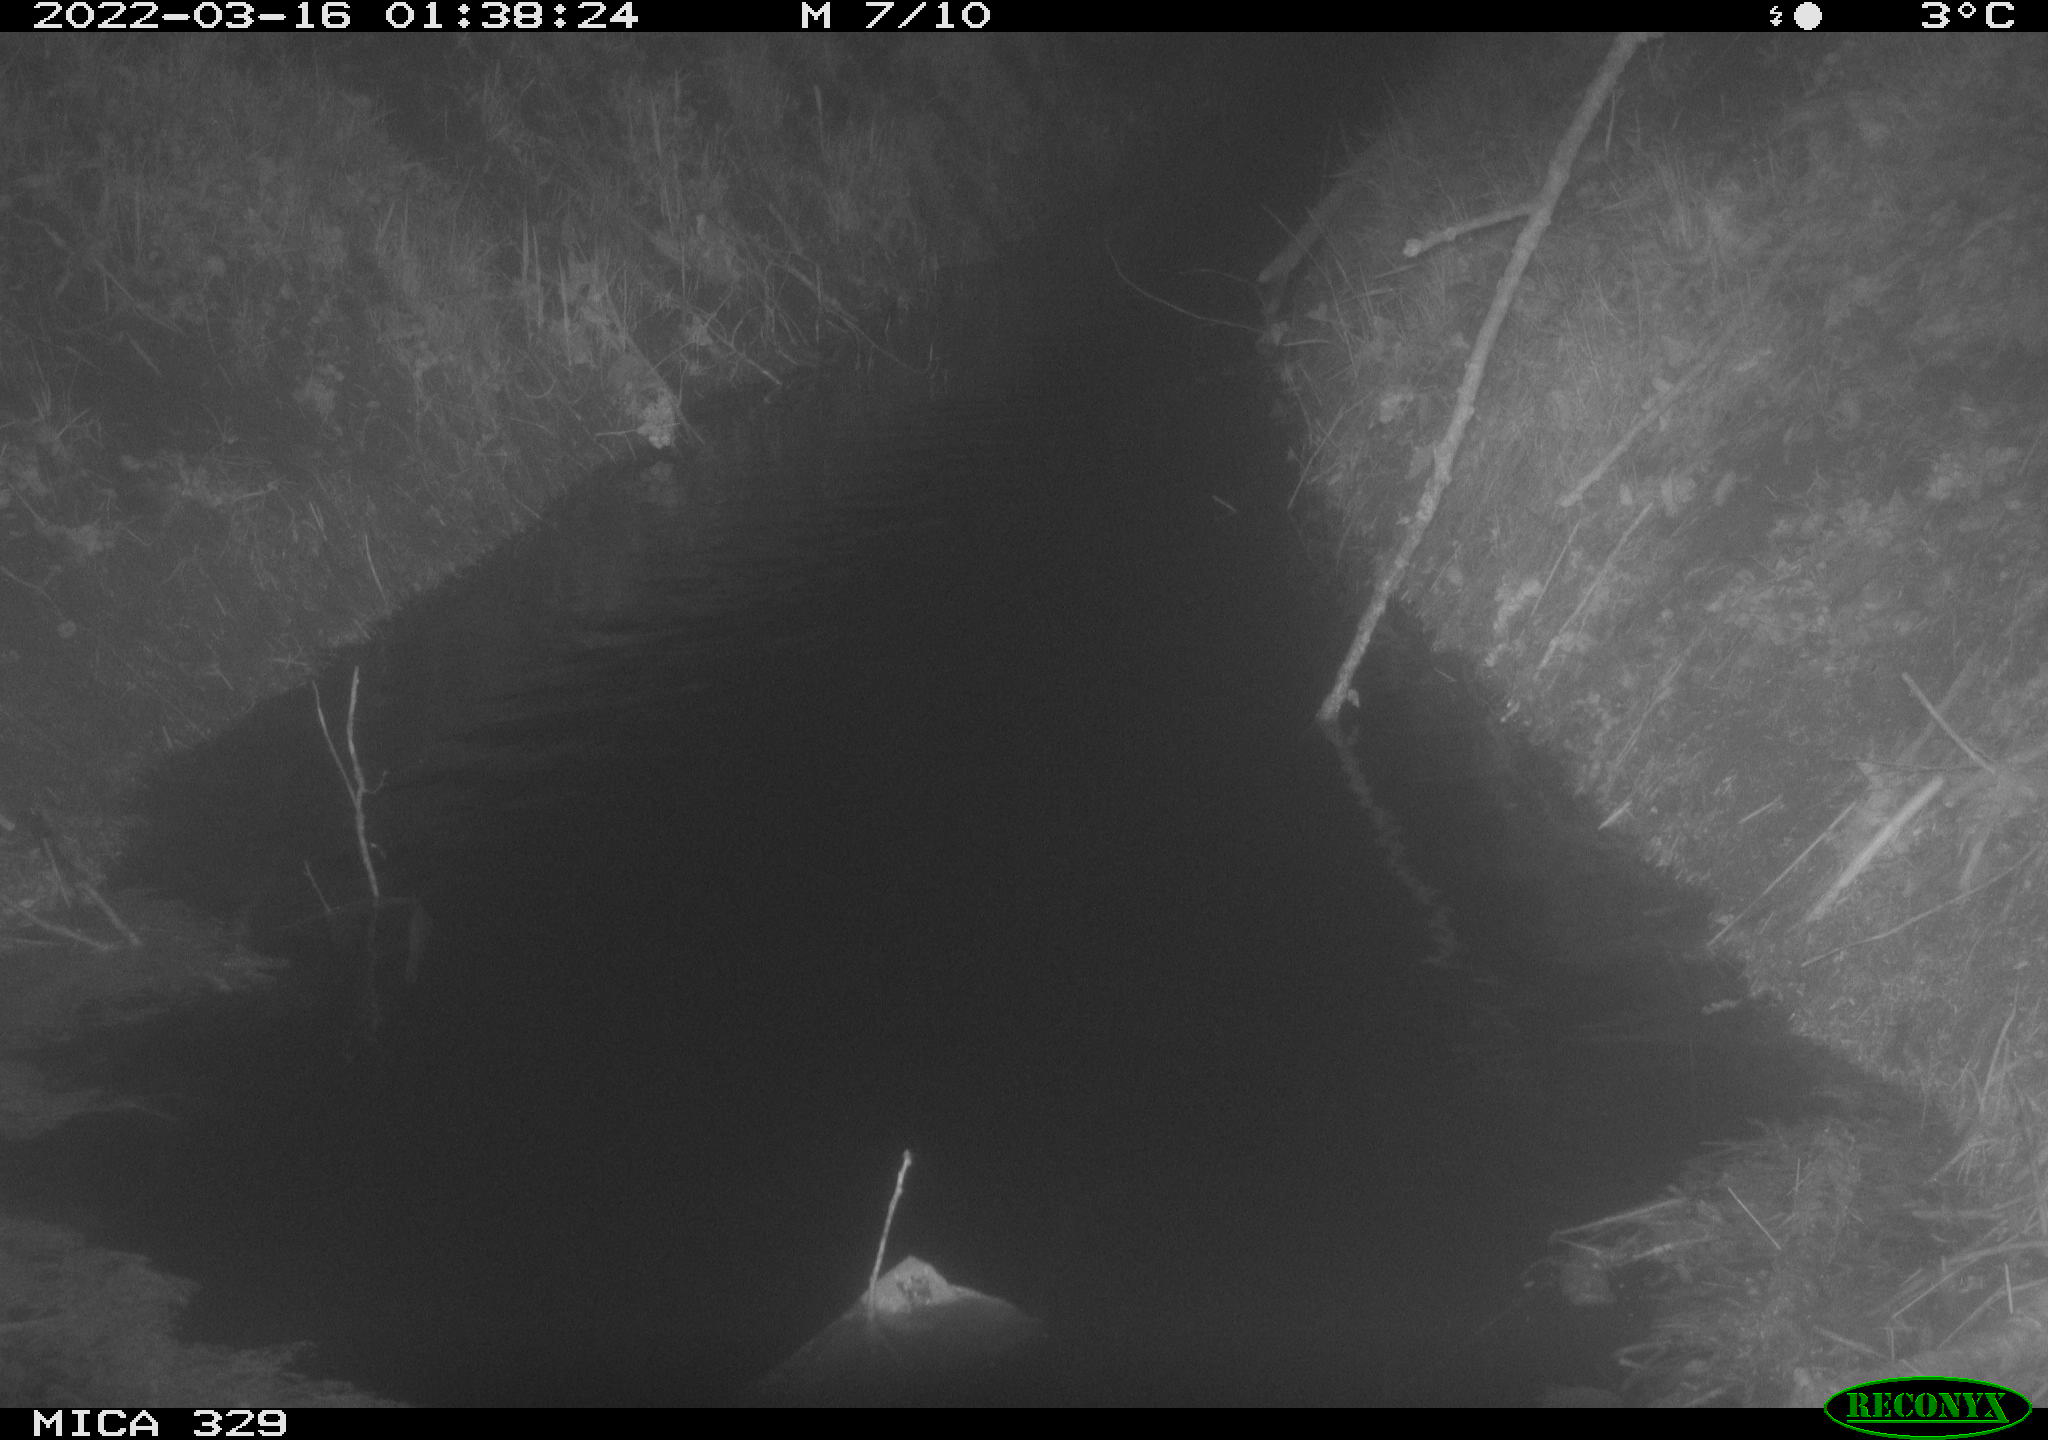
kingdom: Animalia
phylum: Chordata
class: Mammalia
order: Rodentia
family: Cricetidae
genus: Ondatra
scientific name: Ondatra zibethicus
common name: Muskrat
